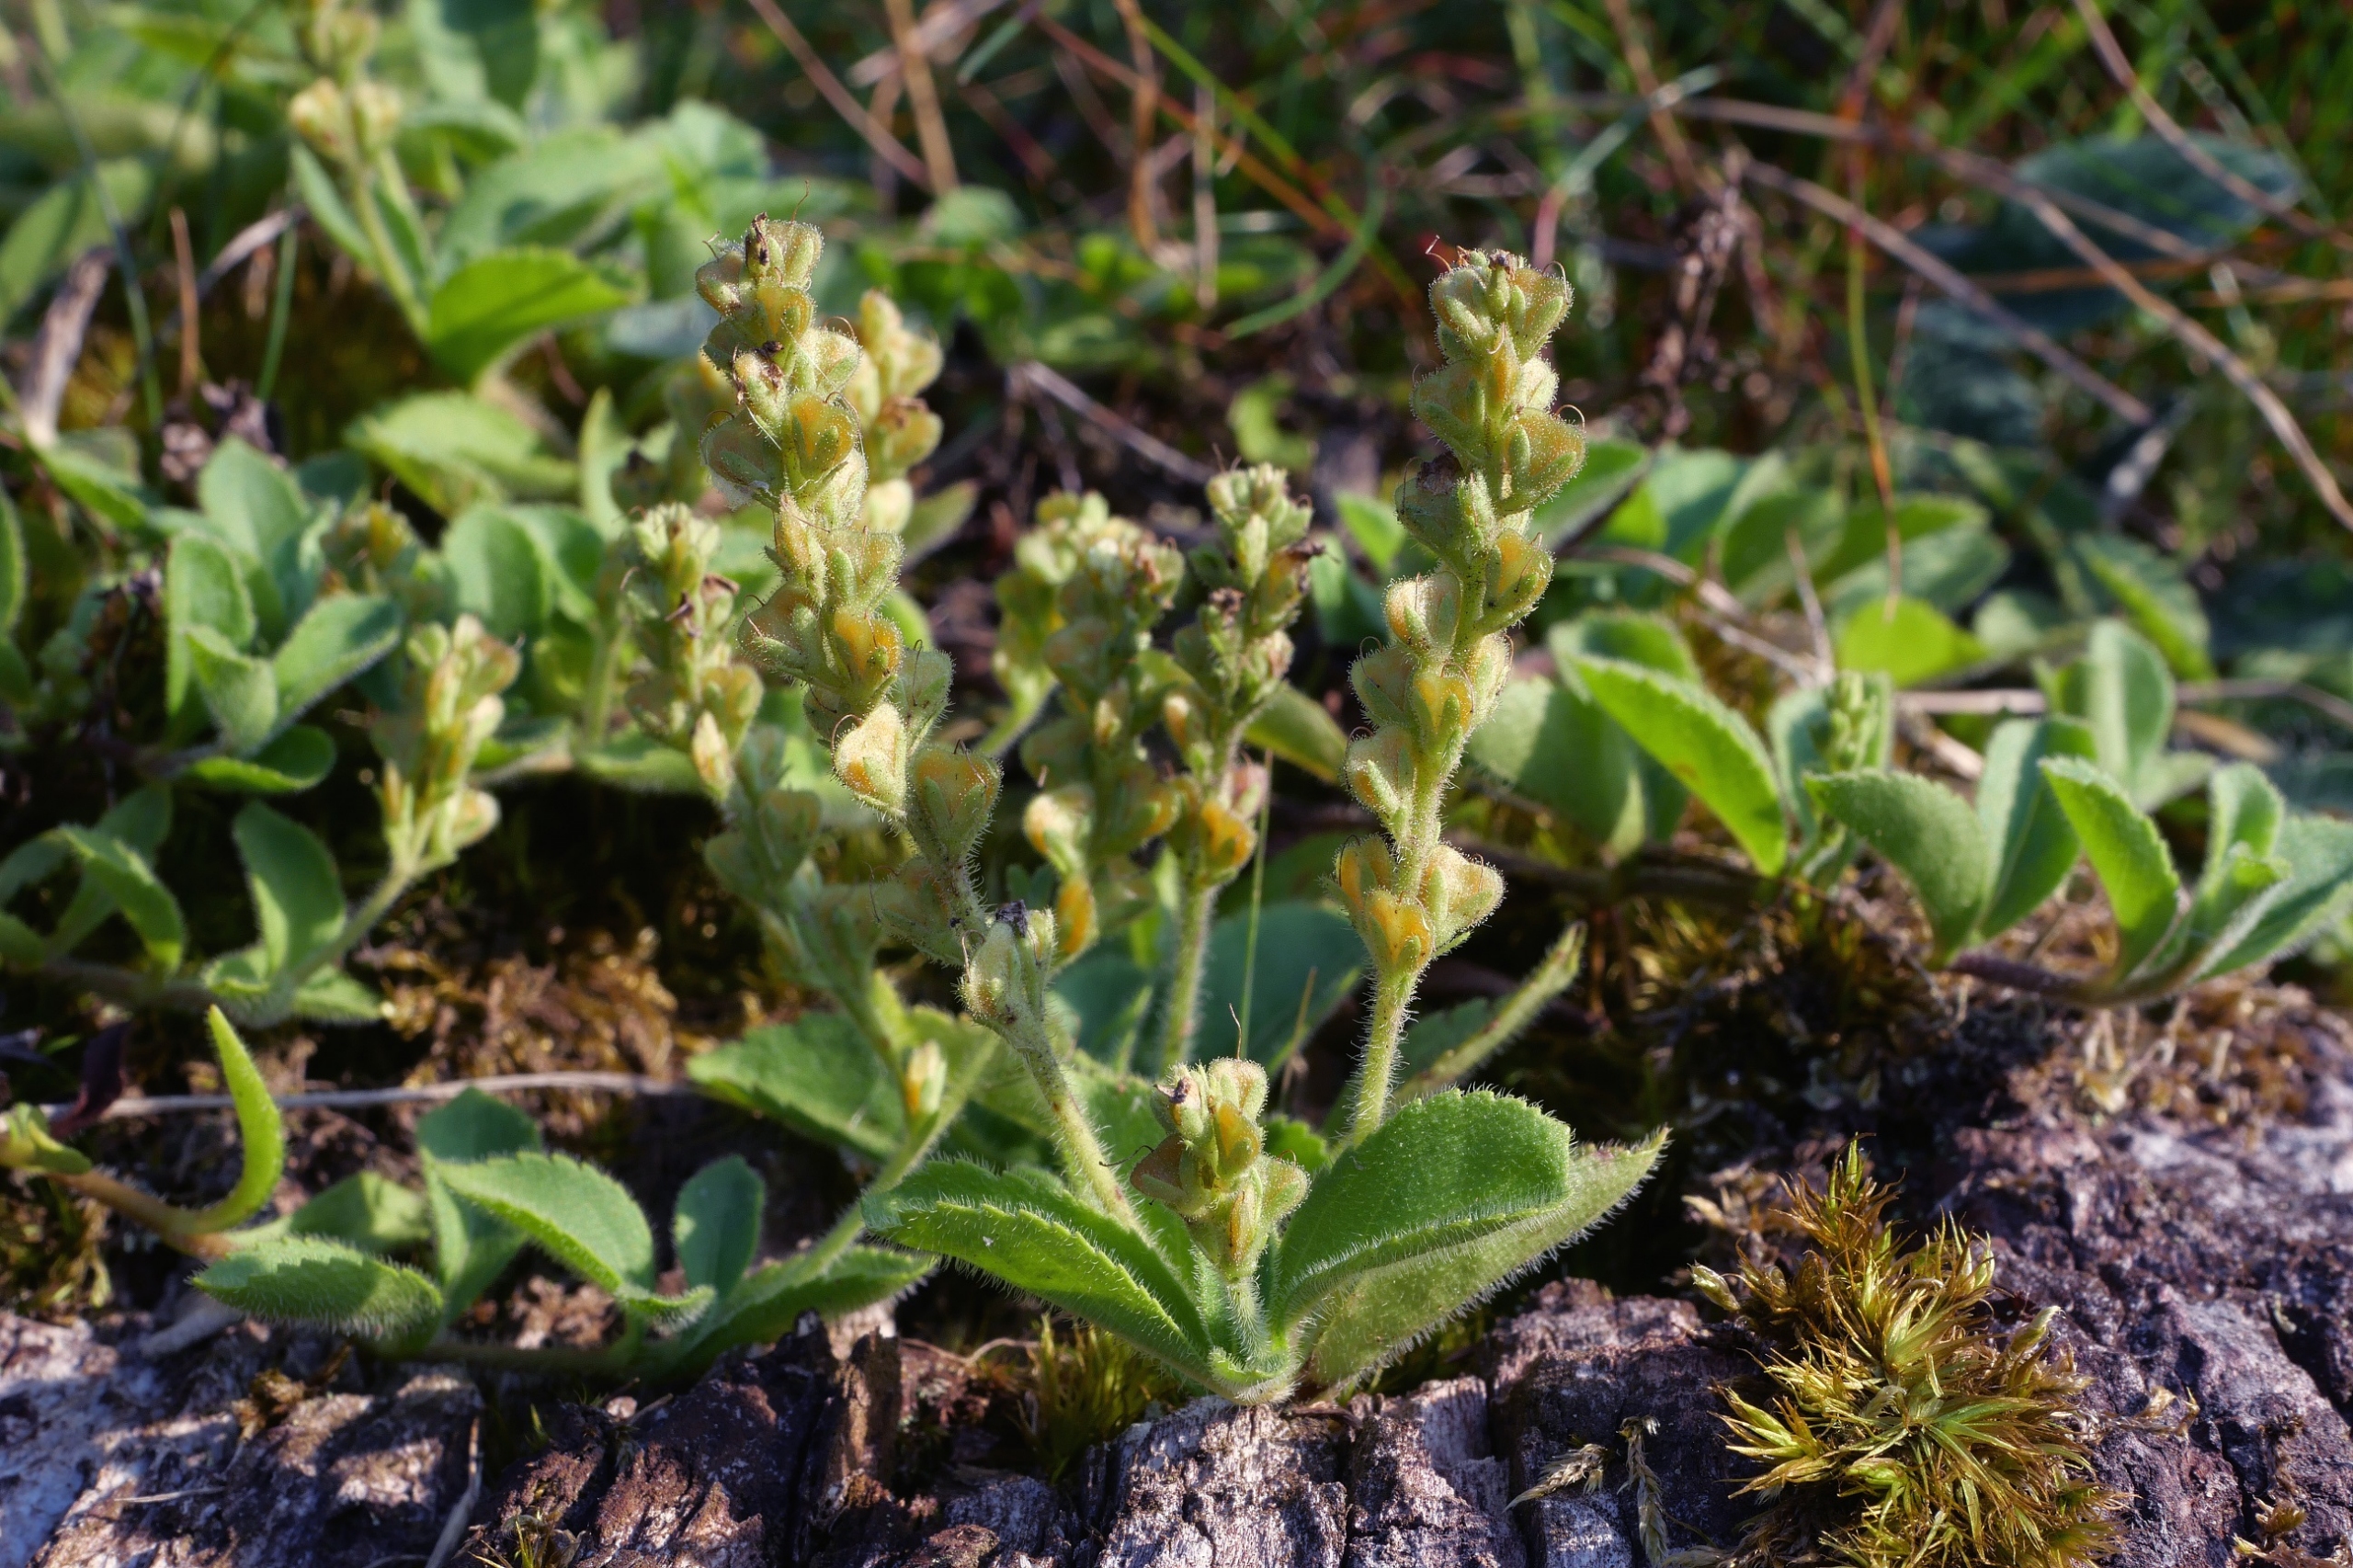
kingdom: Plantae
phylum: Tracheophyta
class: Magnoliopsida
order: Lamiales
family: Plantaginaceae
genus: Veronica
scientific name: Veronica officinalis
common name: Læge-ærenpris
